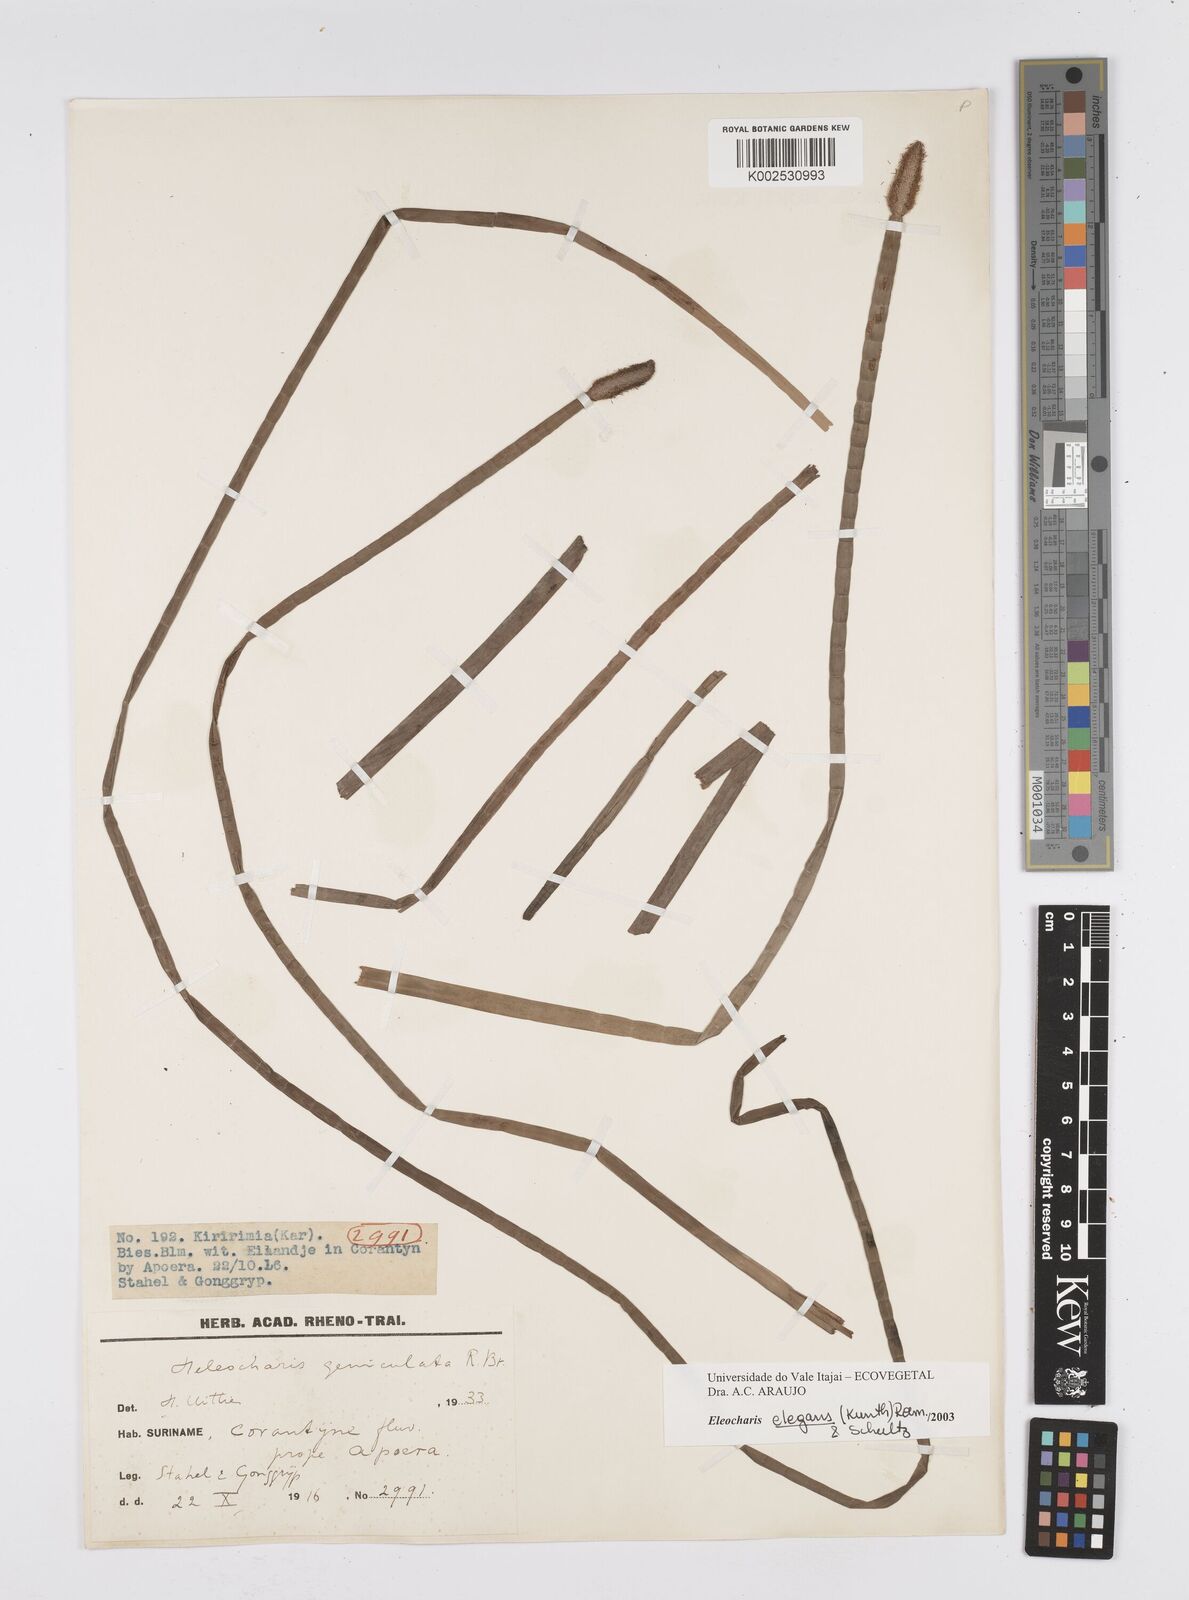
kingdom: Plantae
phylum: Tracheophyta
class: Liliopsida
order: Poales
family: Cyperaceae
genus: Eleocharis
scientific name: Eleocharis elegans
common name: Elegant spike-rush
